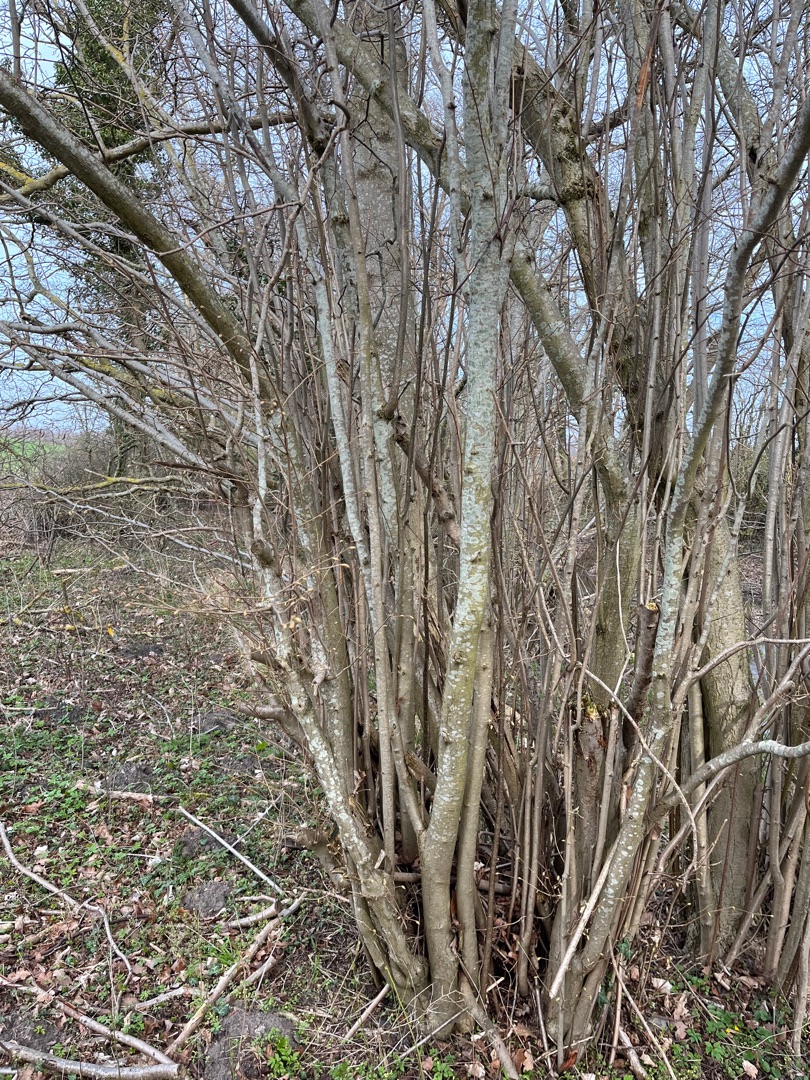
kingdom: Plantae
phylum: Tracheophyta
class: Magnoliopsida
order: Fagales
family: Betulaceae
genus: Corylus
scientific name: Corylus avellana
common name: Hassel
